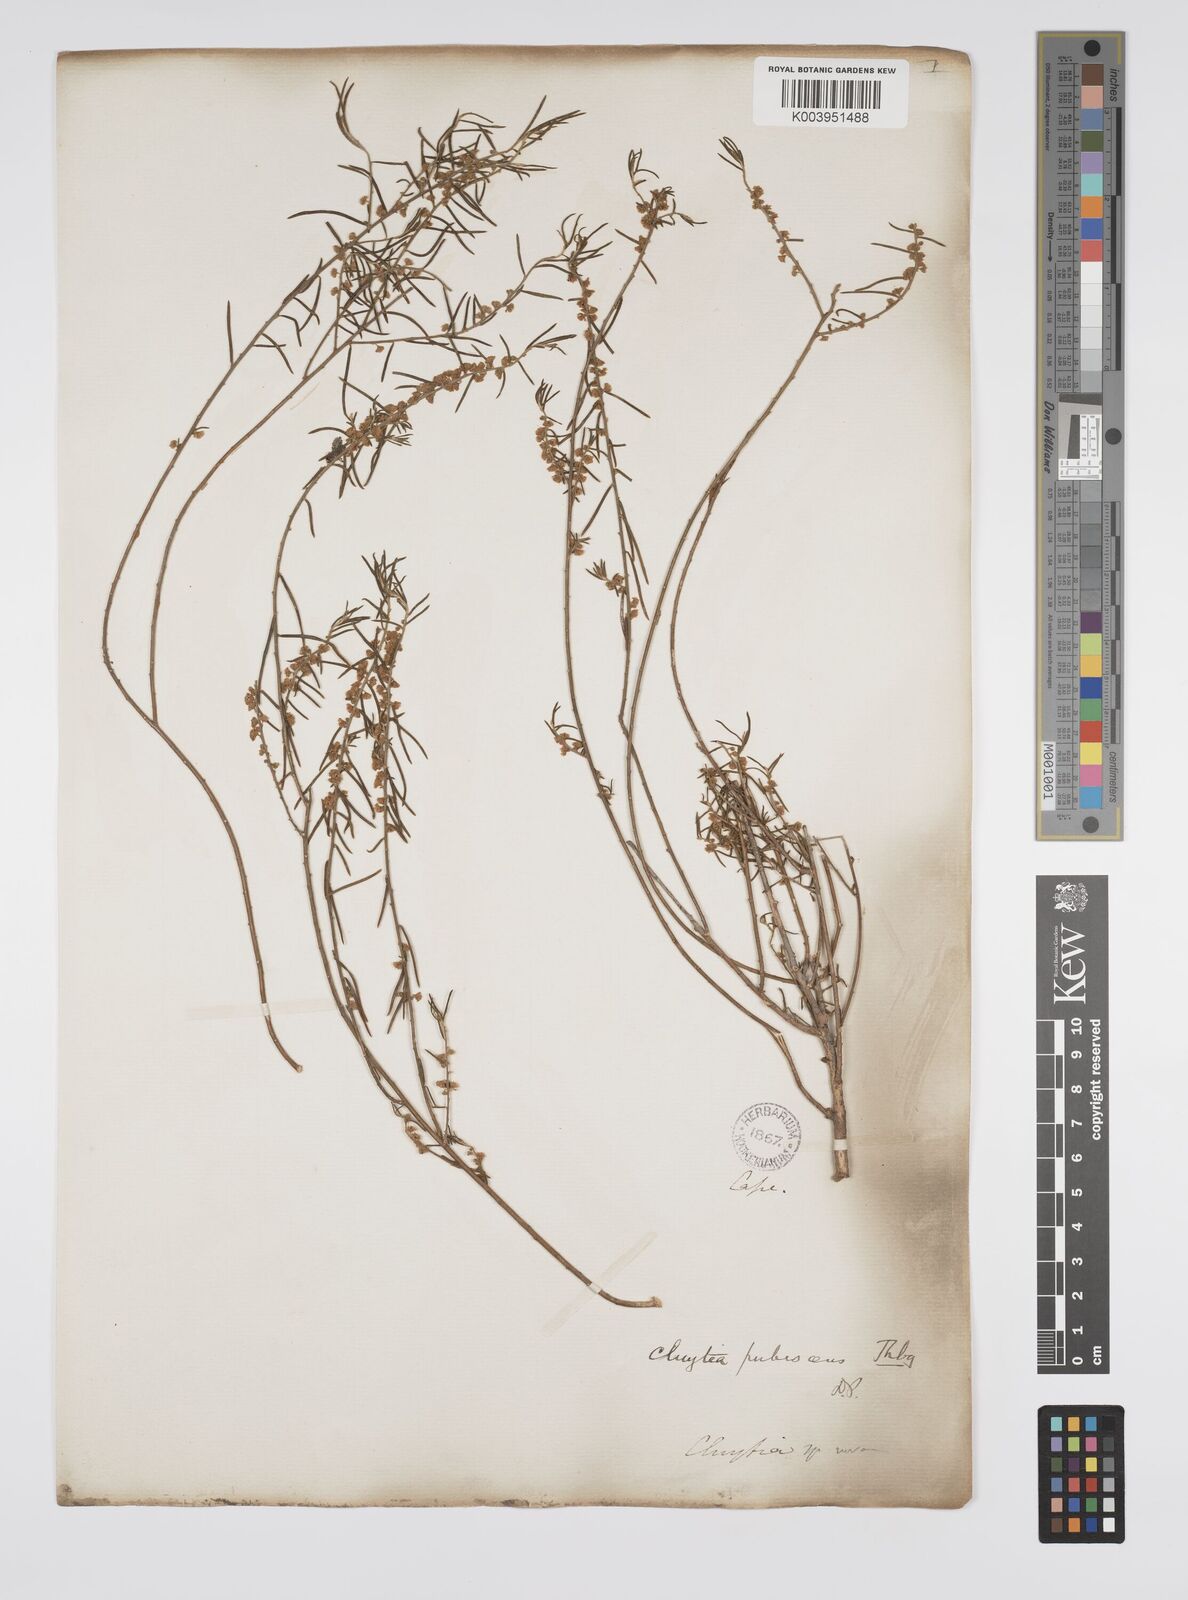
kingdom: Plantae
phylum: Tracheophyta
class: Magnoliopsida
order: Malpighiales
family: Peraceae
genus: Clutia
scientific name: Clutia
